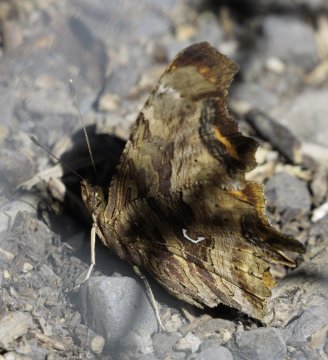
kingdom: Animalia
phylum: Arthropoda
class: Insecta
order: Lepidoptera
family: Nymphalidae
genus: Polygonia
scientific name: Polygonia satyrus
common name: Satyr Comma
